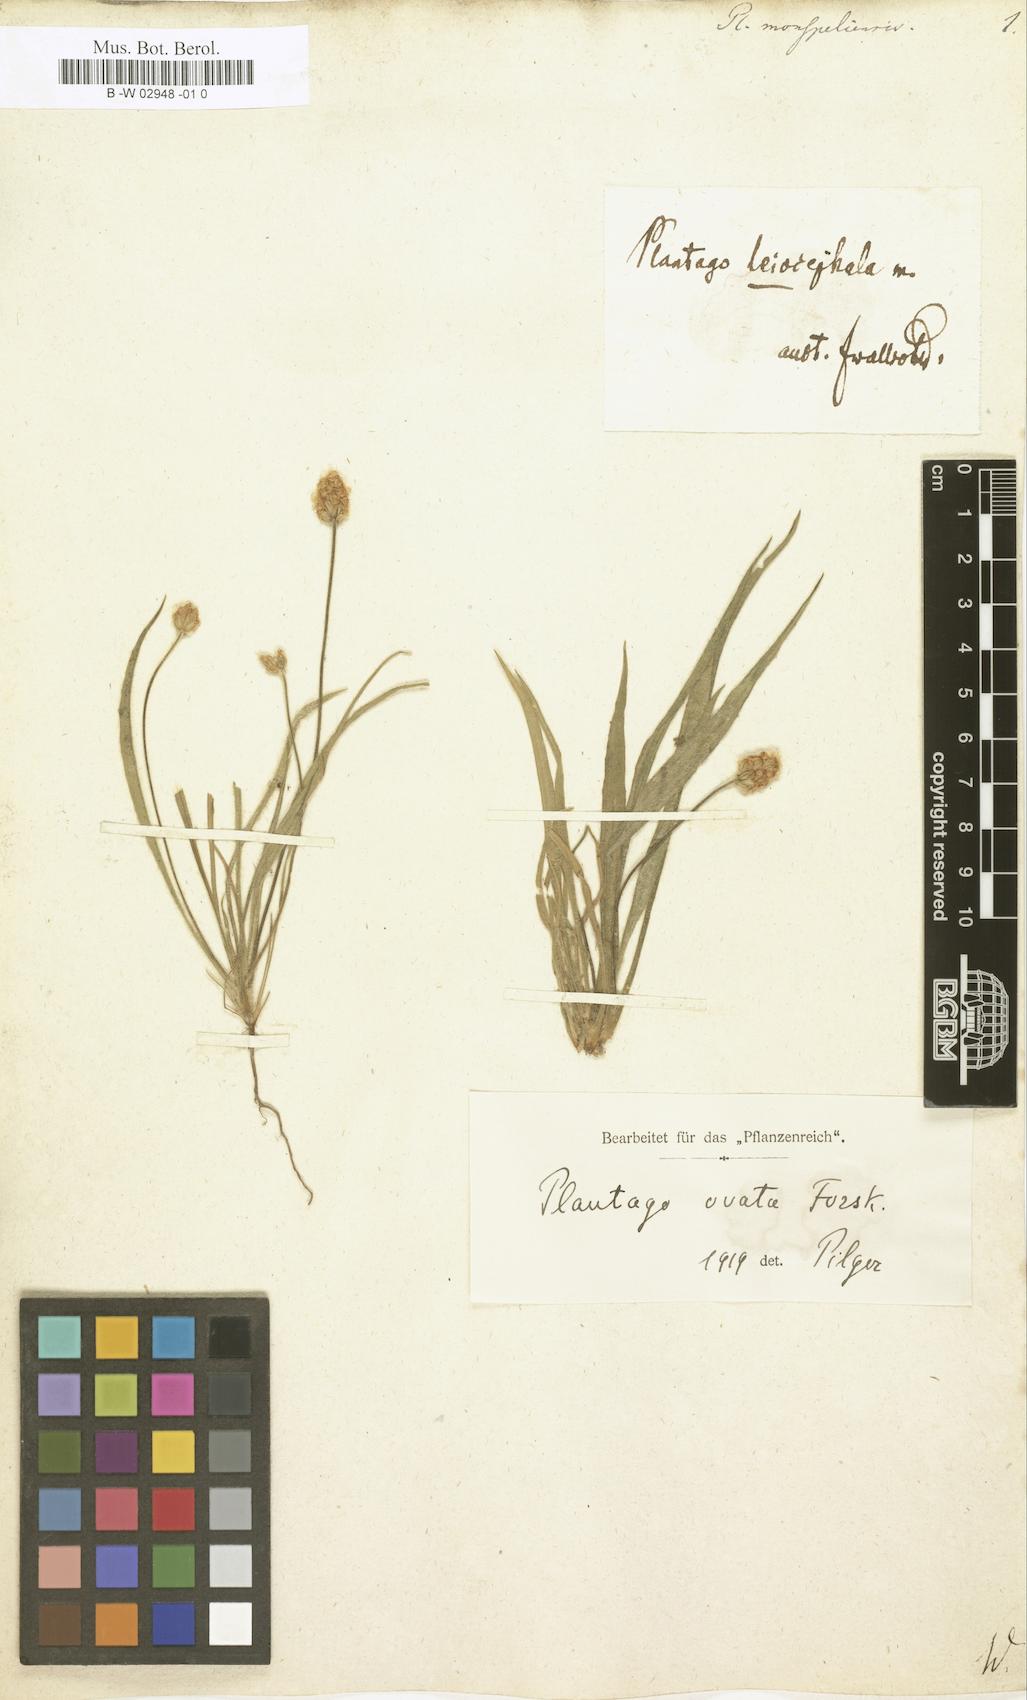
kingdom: Plantae
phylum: Tracheophyta
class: Magnoliopsida
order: Lamiales
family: Plantaginaceae
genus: Plantago
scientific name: Plantago ovata
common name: Blond plantain
